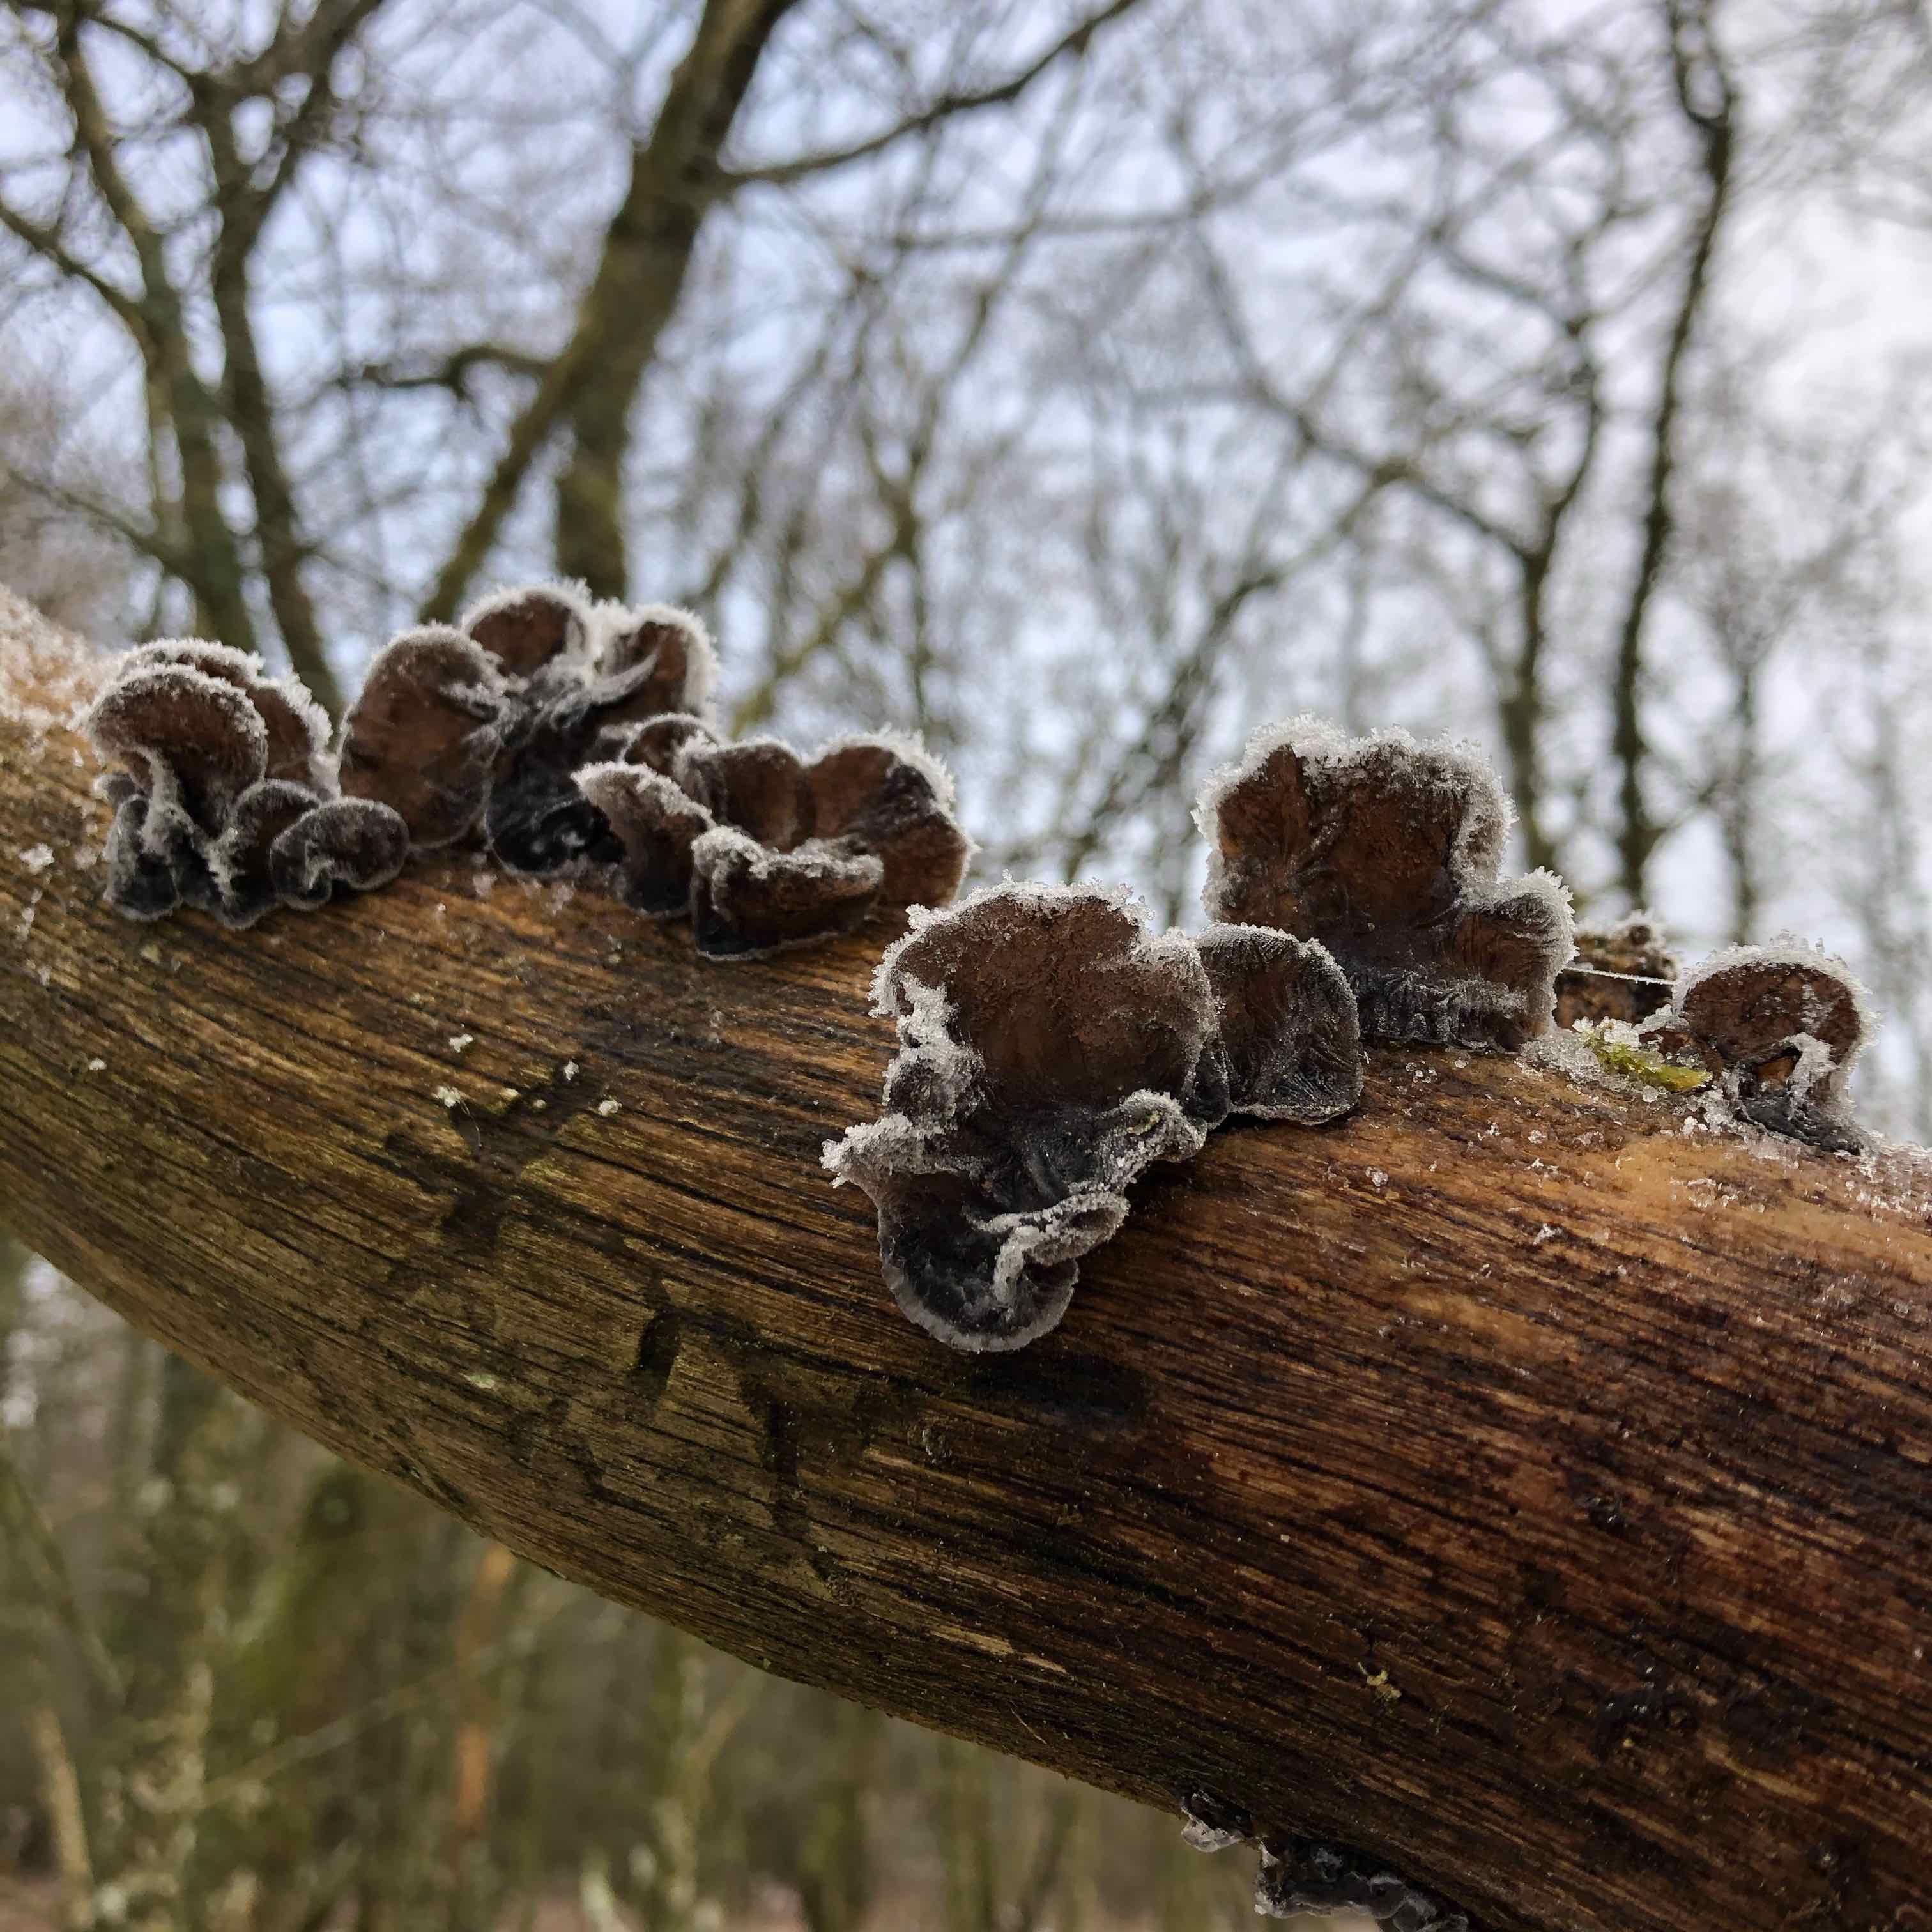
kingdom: Fungi
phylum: Basidiomycota
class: Agaricomycetes
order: Auriculariales
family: Auriculariaceae
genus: Exidia
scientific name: Exidia glandulosa
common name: ege-bævretop
